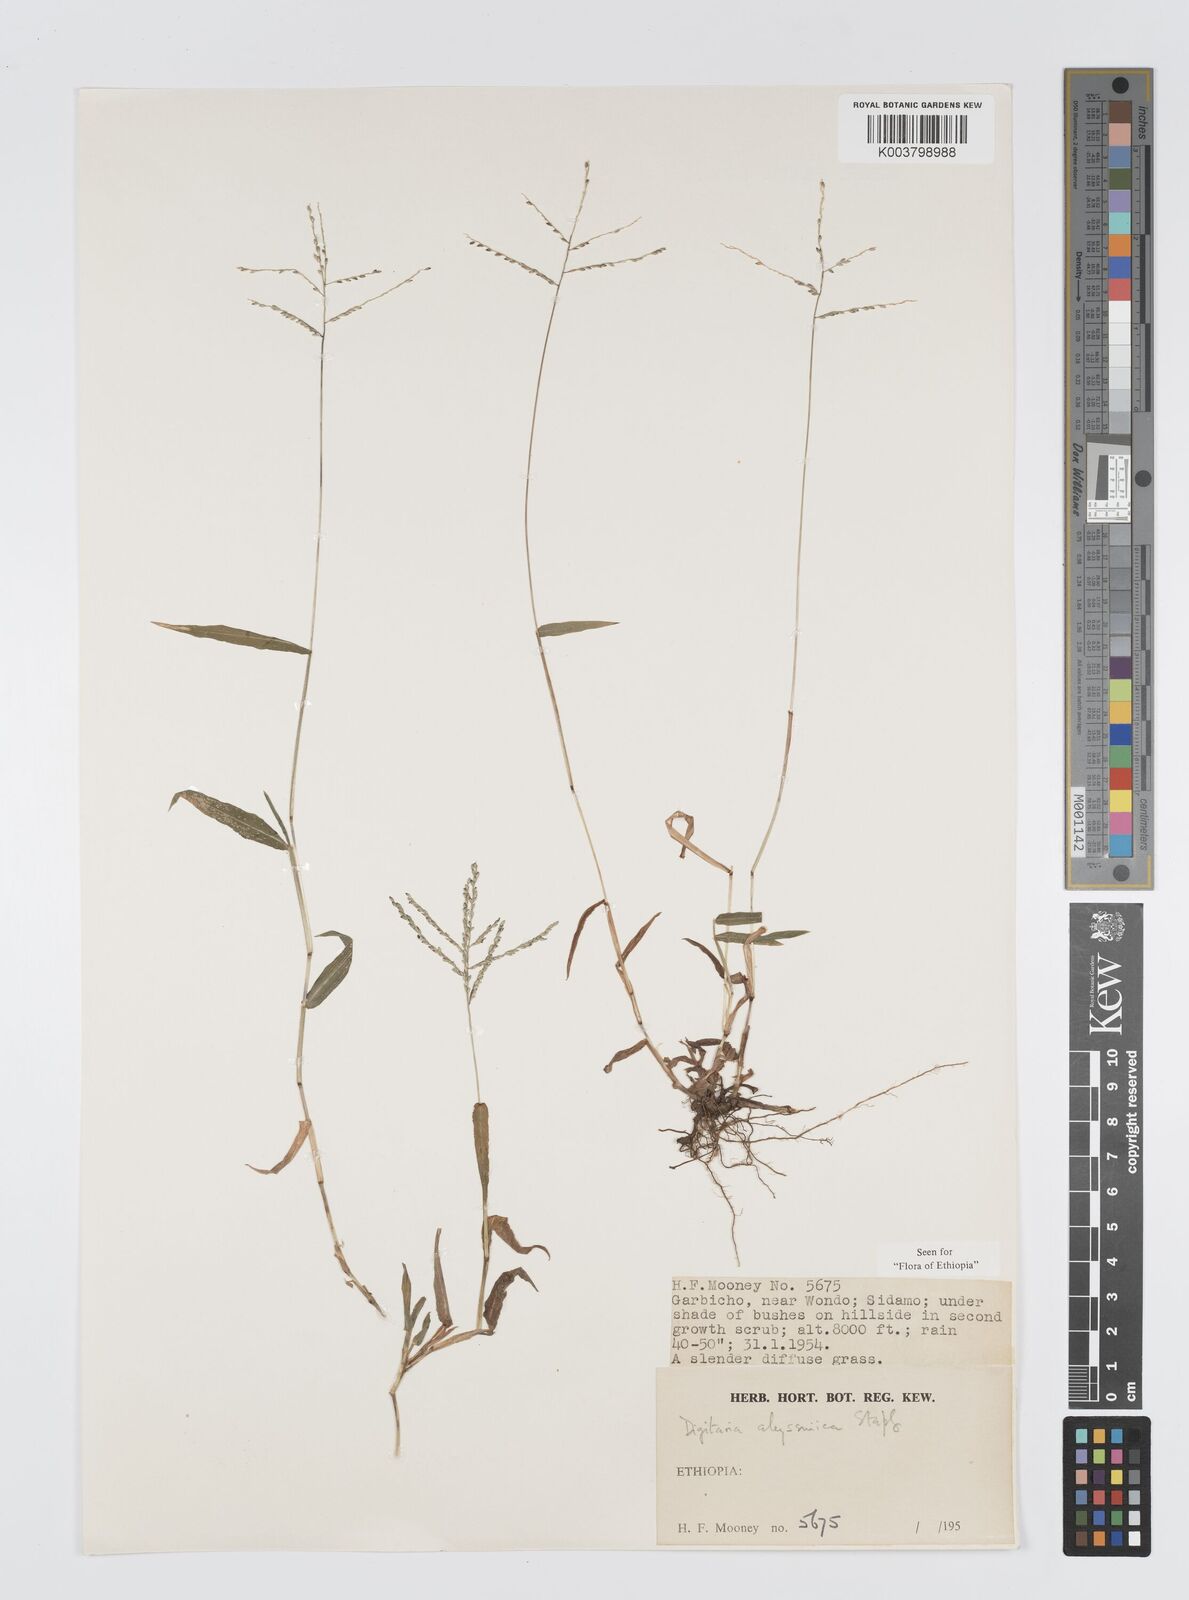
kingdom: Plantae
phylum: Tracheophyta
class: Liliopsida
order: Poales
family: Poaceae
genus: Digitaria
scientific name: Digitaria abyssinica
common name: African couchgrass
